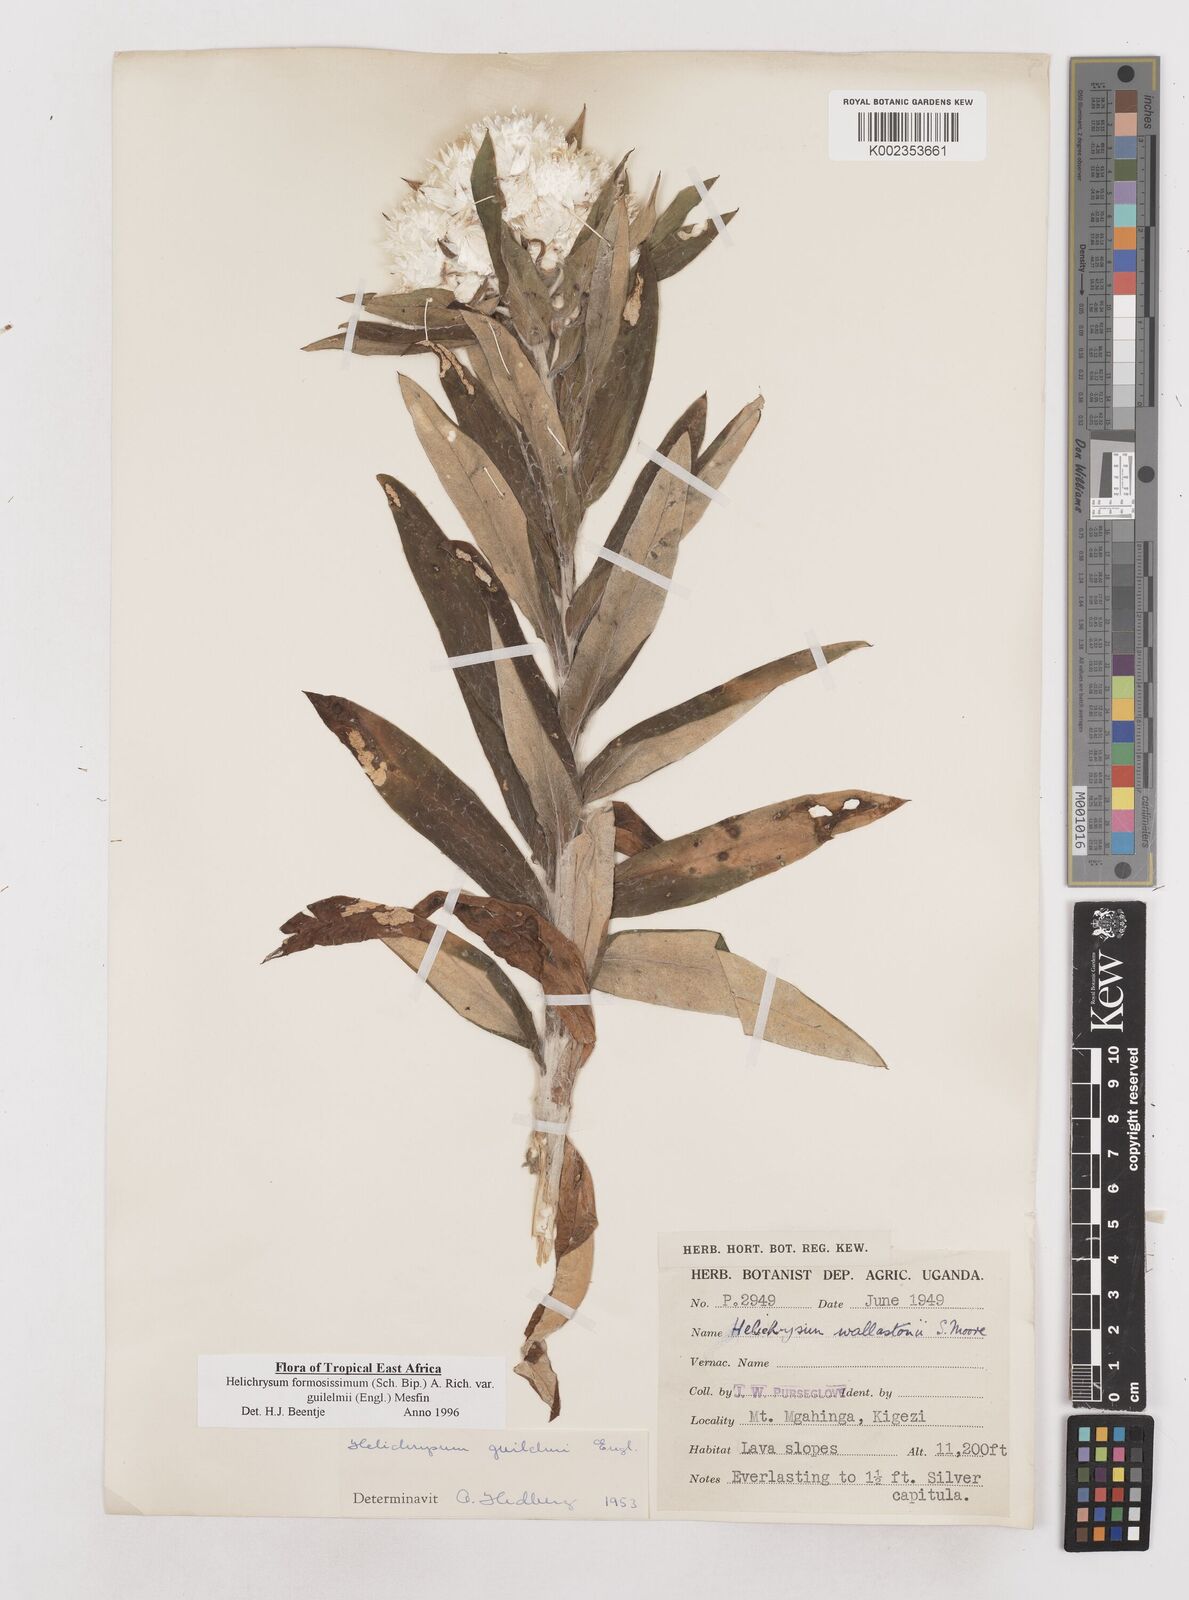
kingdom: Plantae
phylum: Tracheophyta
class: Magnoliopsida
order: Asterales
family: Asteraceae
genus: Helichrysum
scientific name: Helichrysum formosissimum
